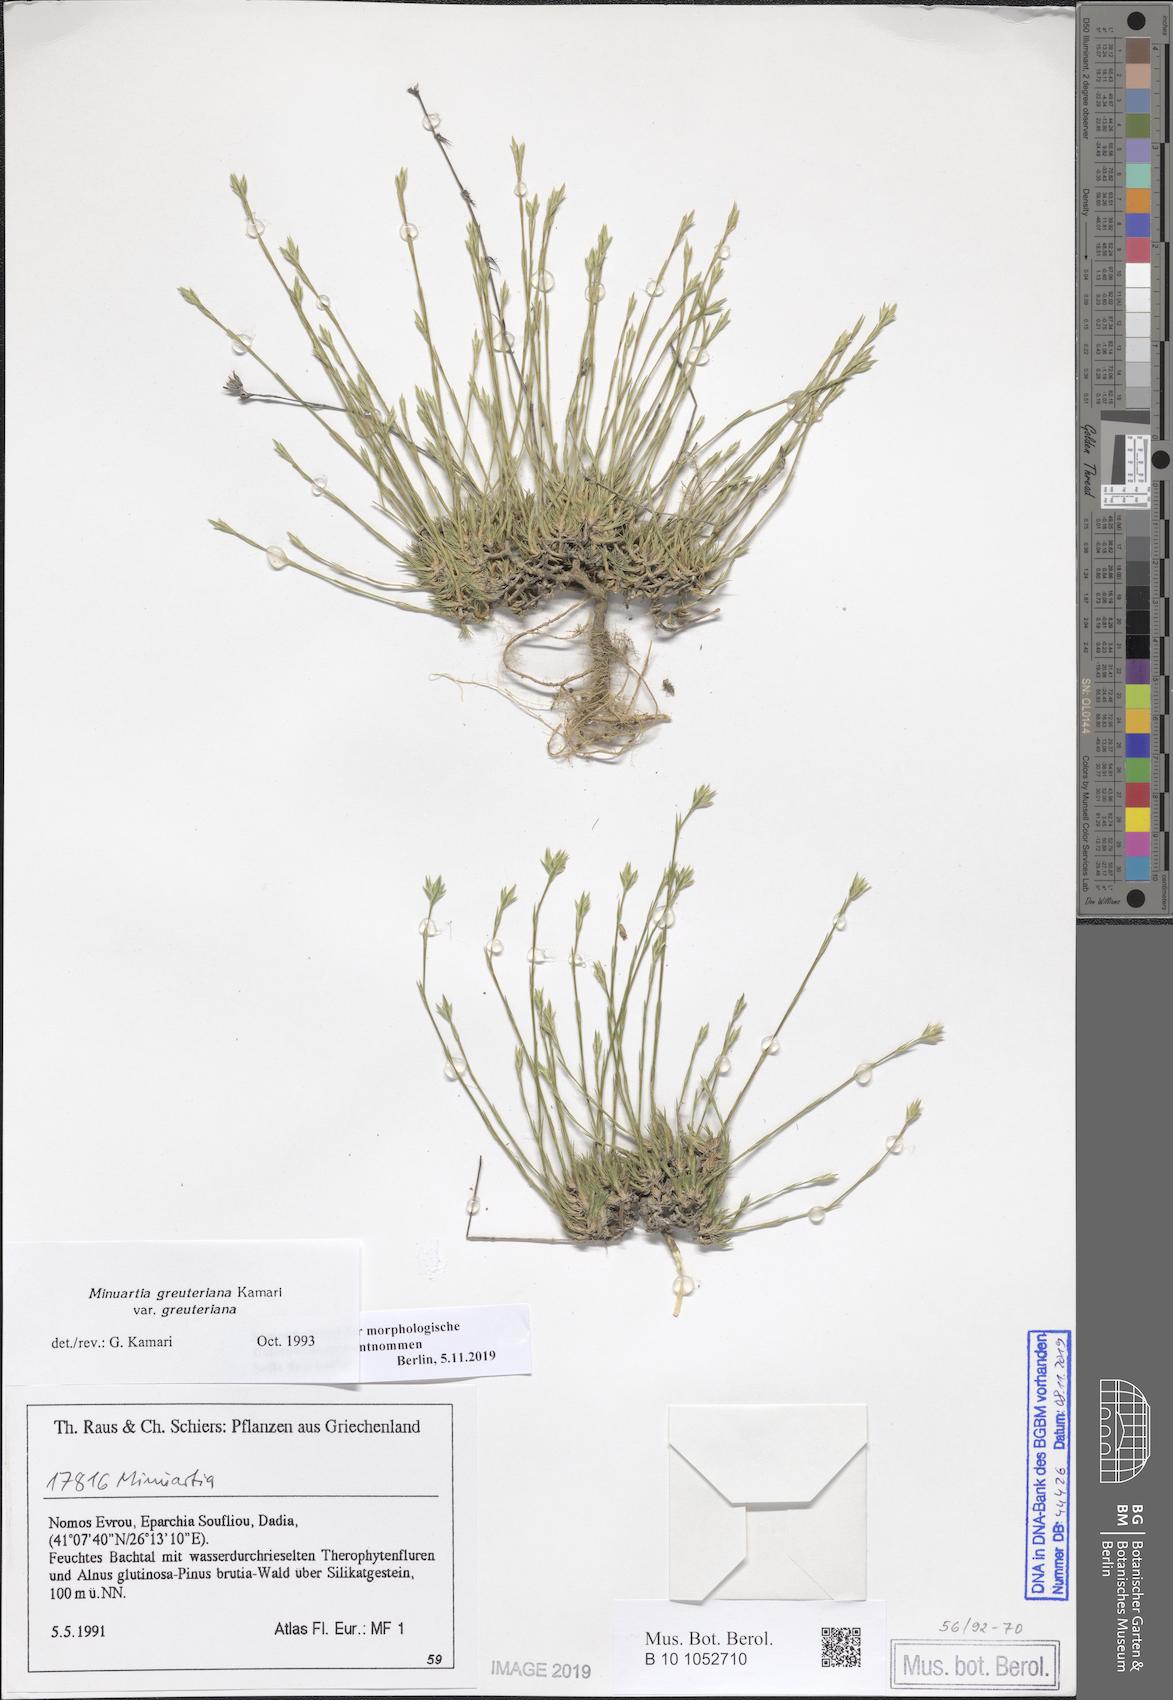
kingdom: Plantae
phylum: Tracheophyta
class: Magnoliopsida
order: Caryophyllales
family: Caryophyllaceae
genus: Minuartia
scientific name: Minuartia greuteriana
